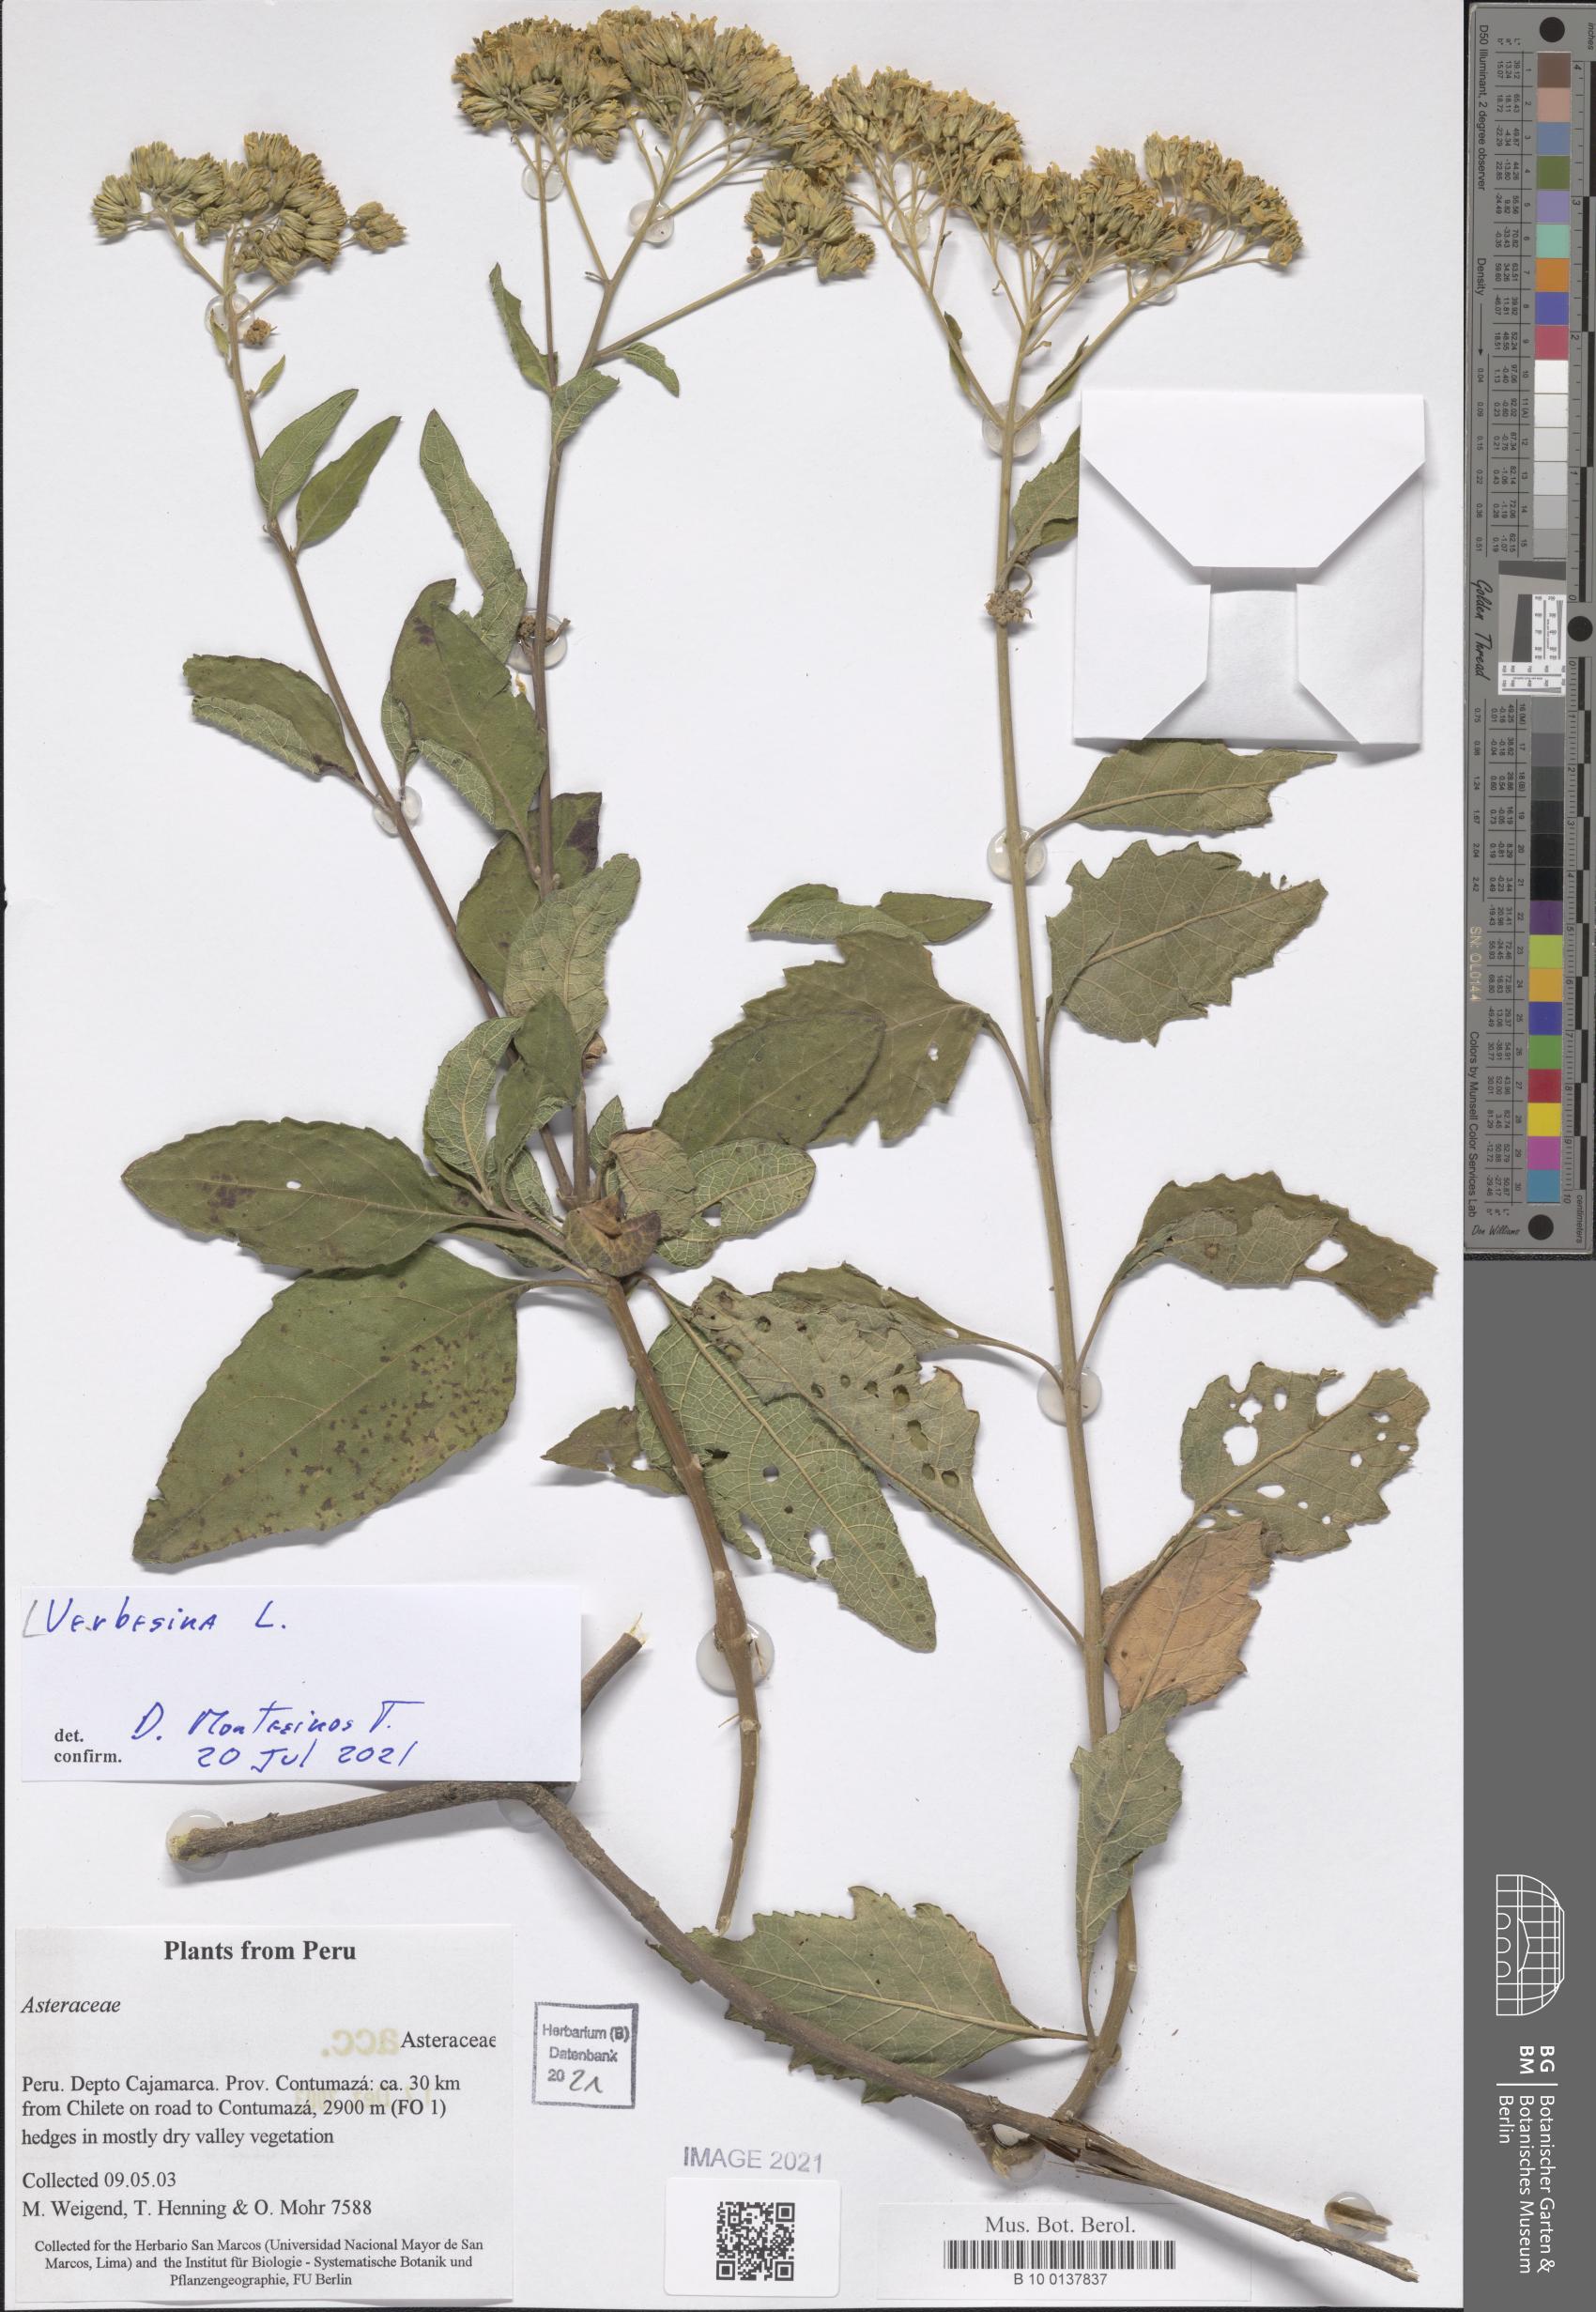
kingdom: Plantae
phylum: Tracheophyta
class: Magnoliopsida
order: Asterales
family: Asteraceae
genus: Verbesina
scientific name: Verbesina
